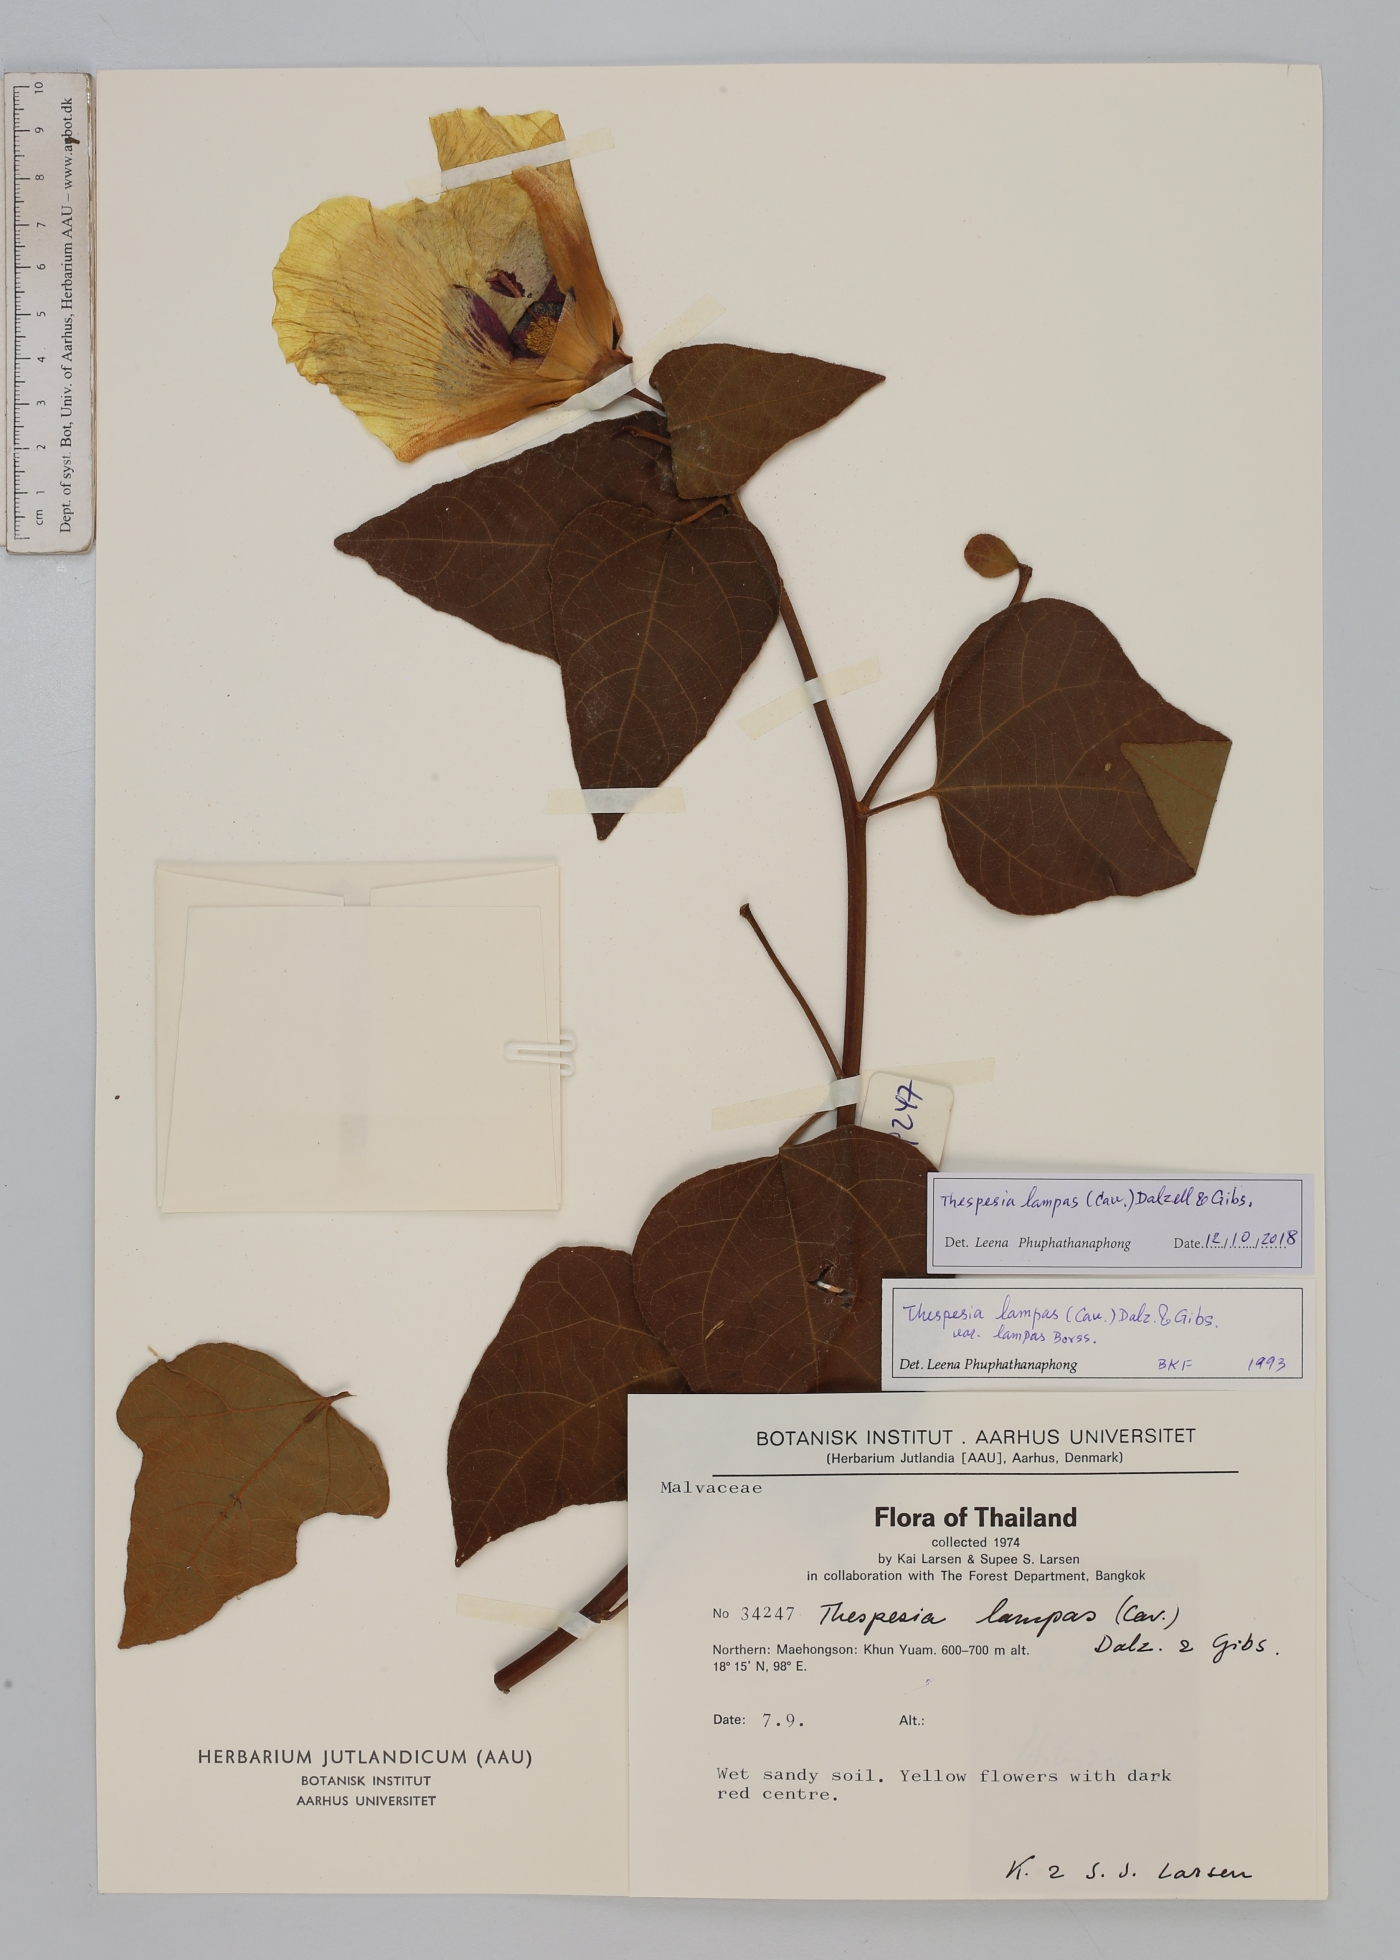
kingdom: Plantae
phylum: Tracheophyta
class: Magnoliopsida
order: Malvales
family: Malvaceae
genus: Thespesia
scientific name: Thespesia lampas
